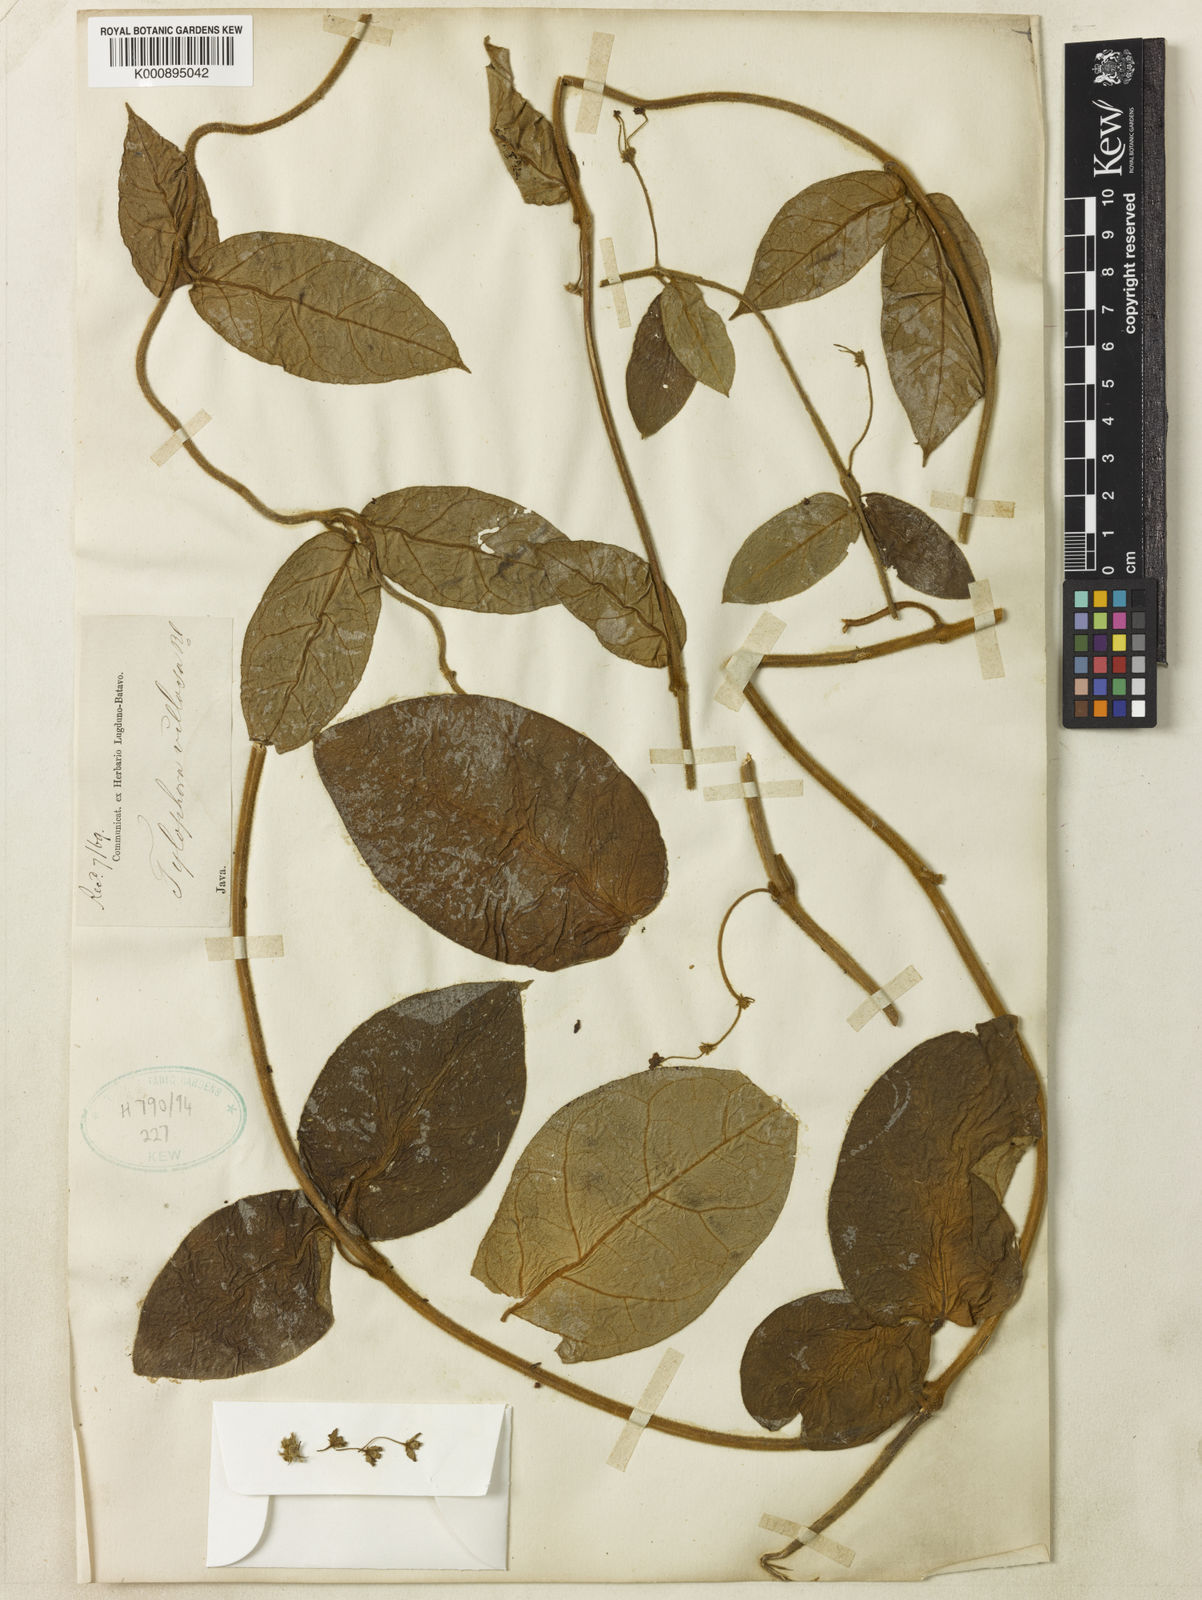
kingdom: Plantae
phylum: Tracheophyta
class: Magnoliopsida
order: Gentianales
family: Apocynaceae
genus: Vincetoxicum
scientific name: Vincetoxicum villosum
